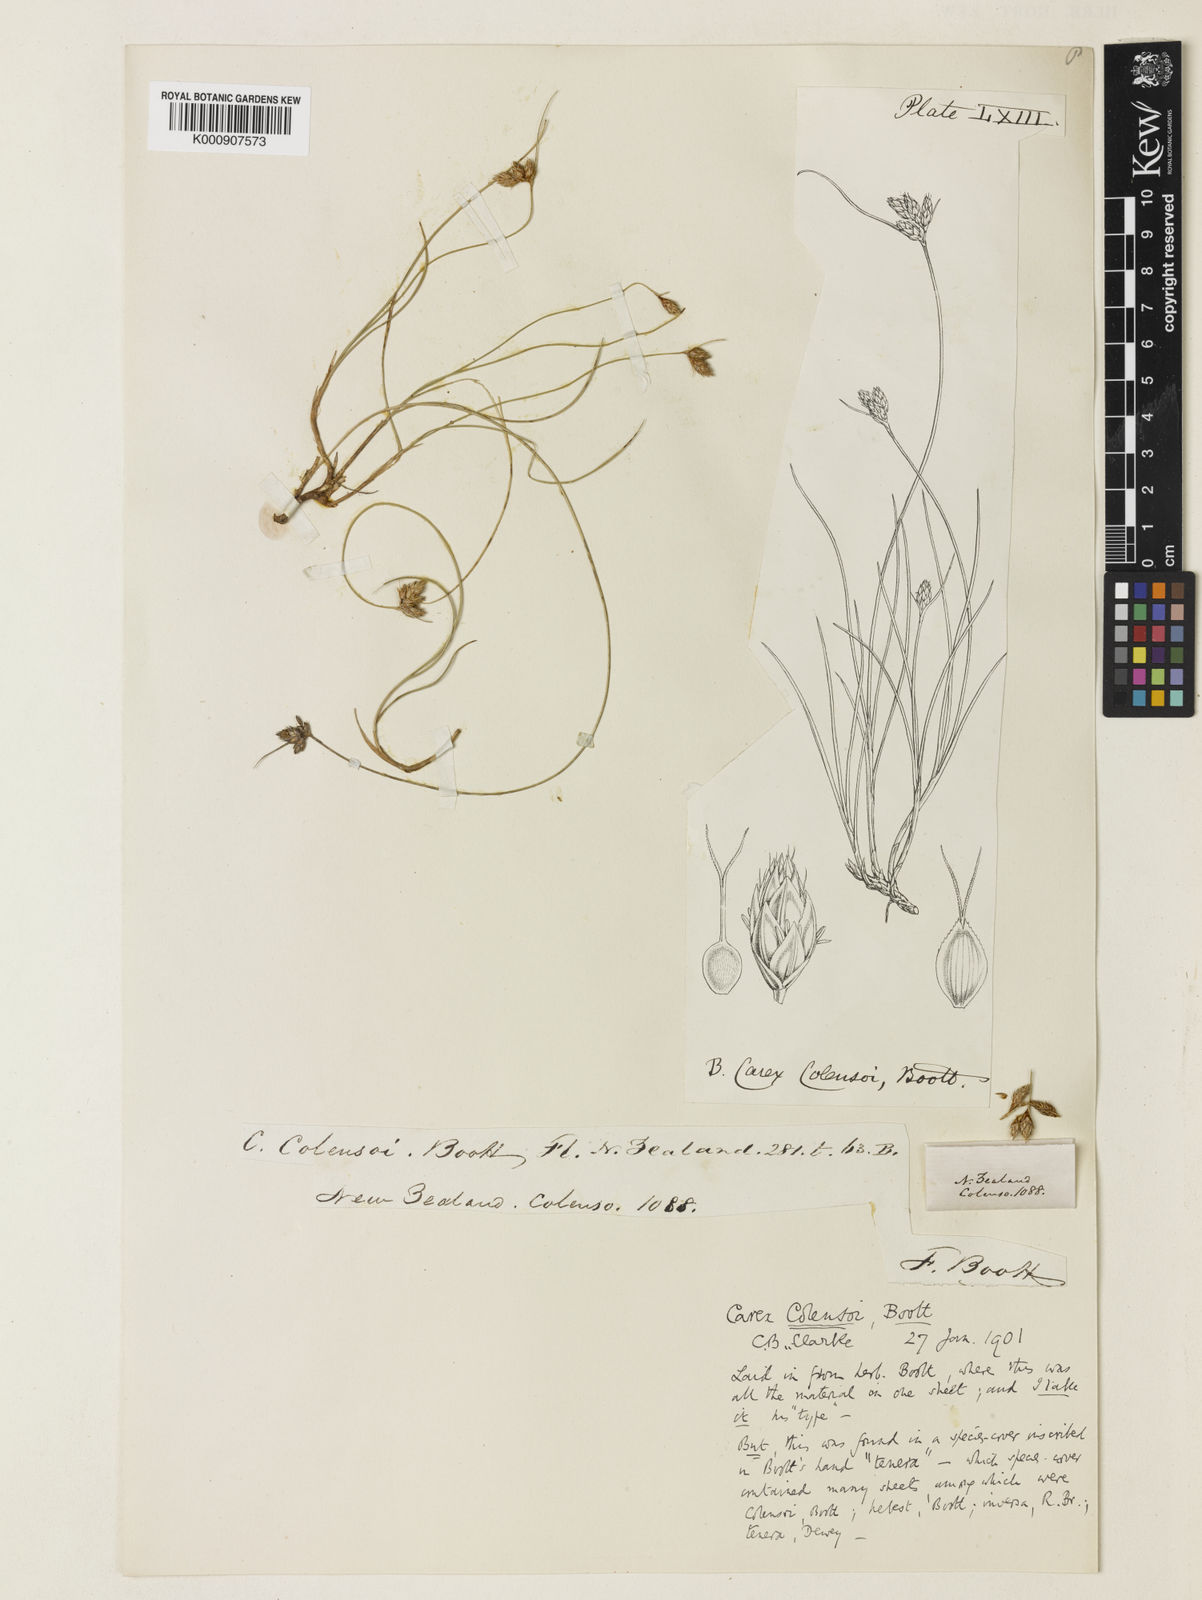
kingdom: Plantae
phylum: Tracheophyta
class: Liliopsida
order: Poales
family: Cyperaceae
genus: Carex
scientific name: Carex colensoi
